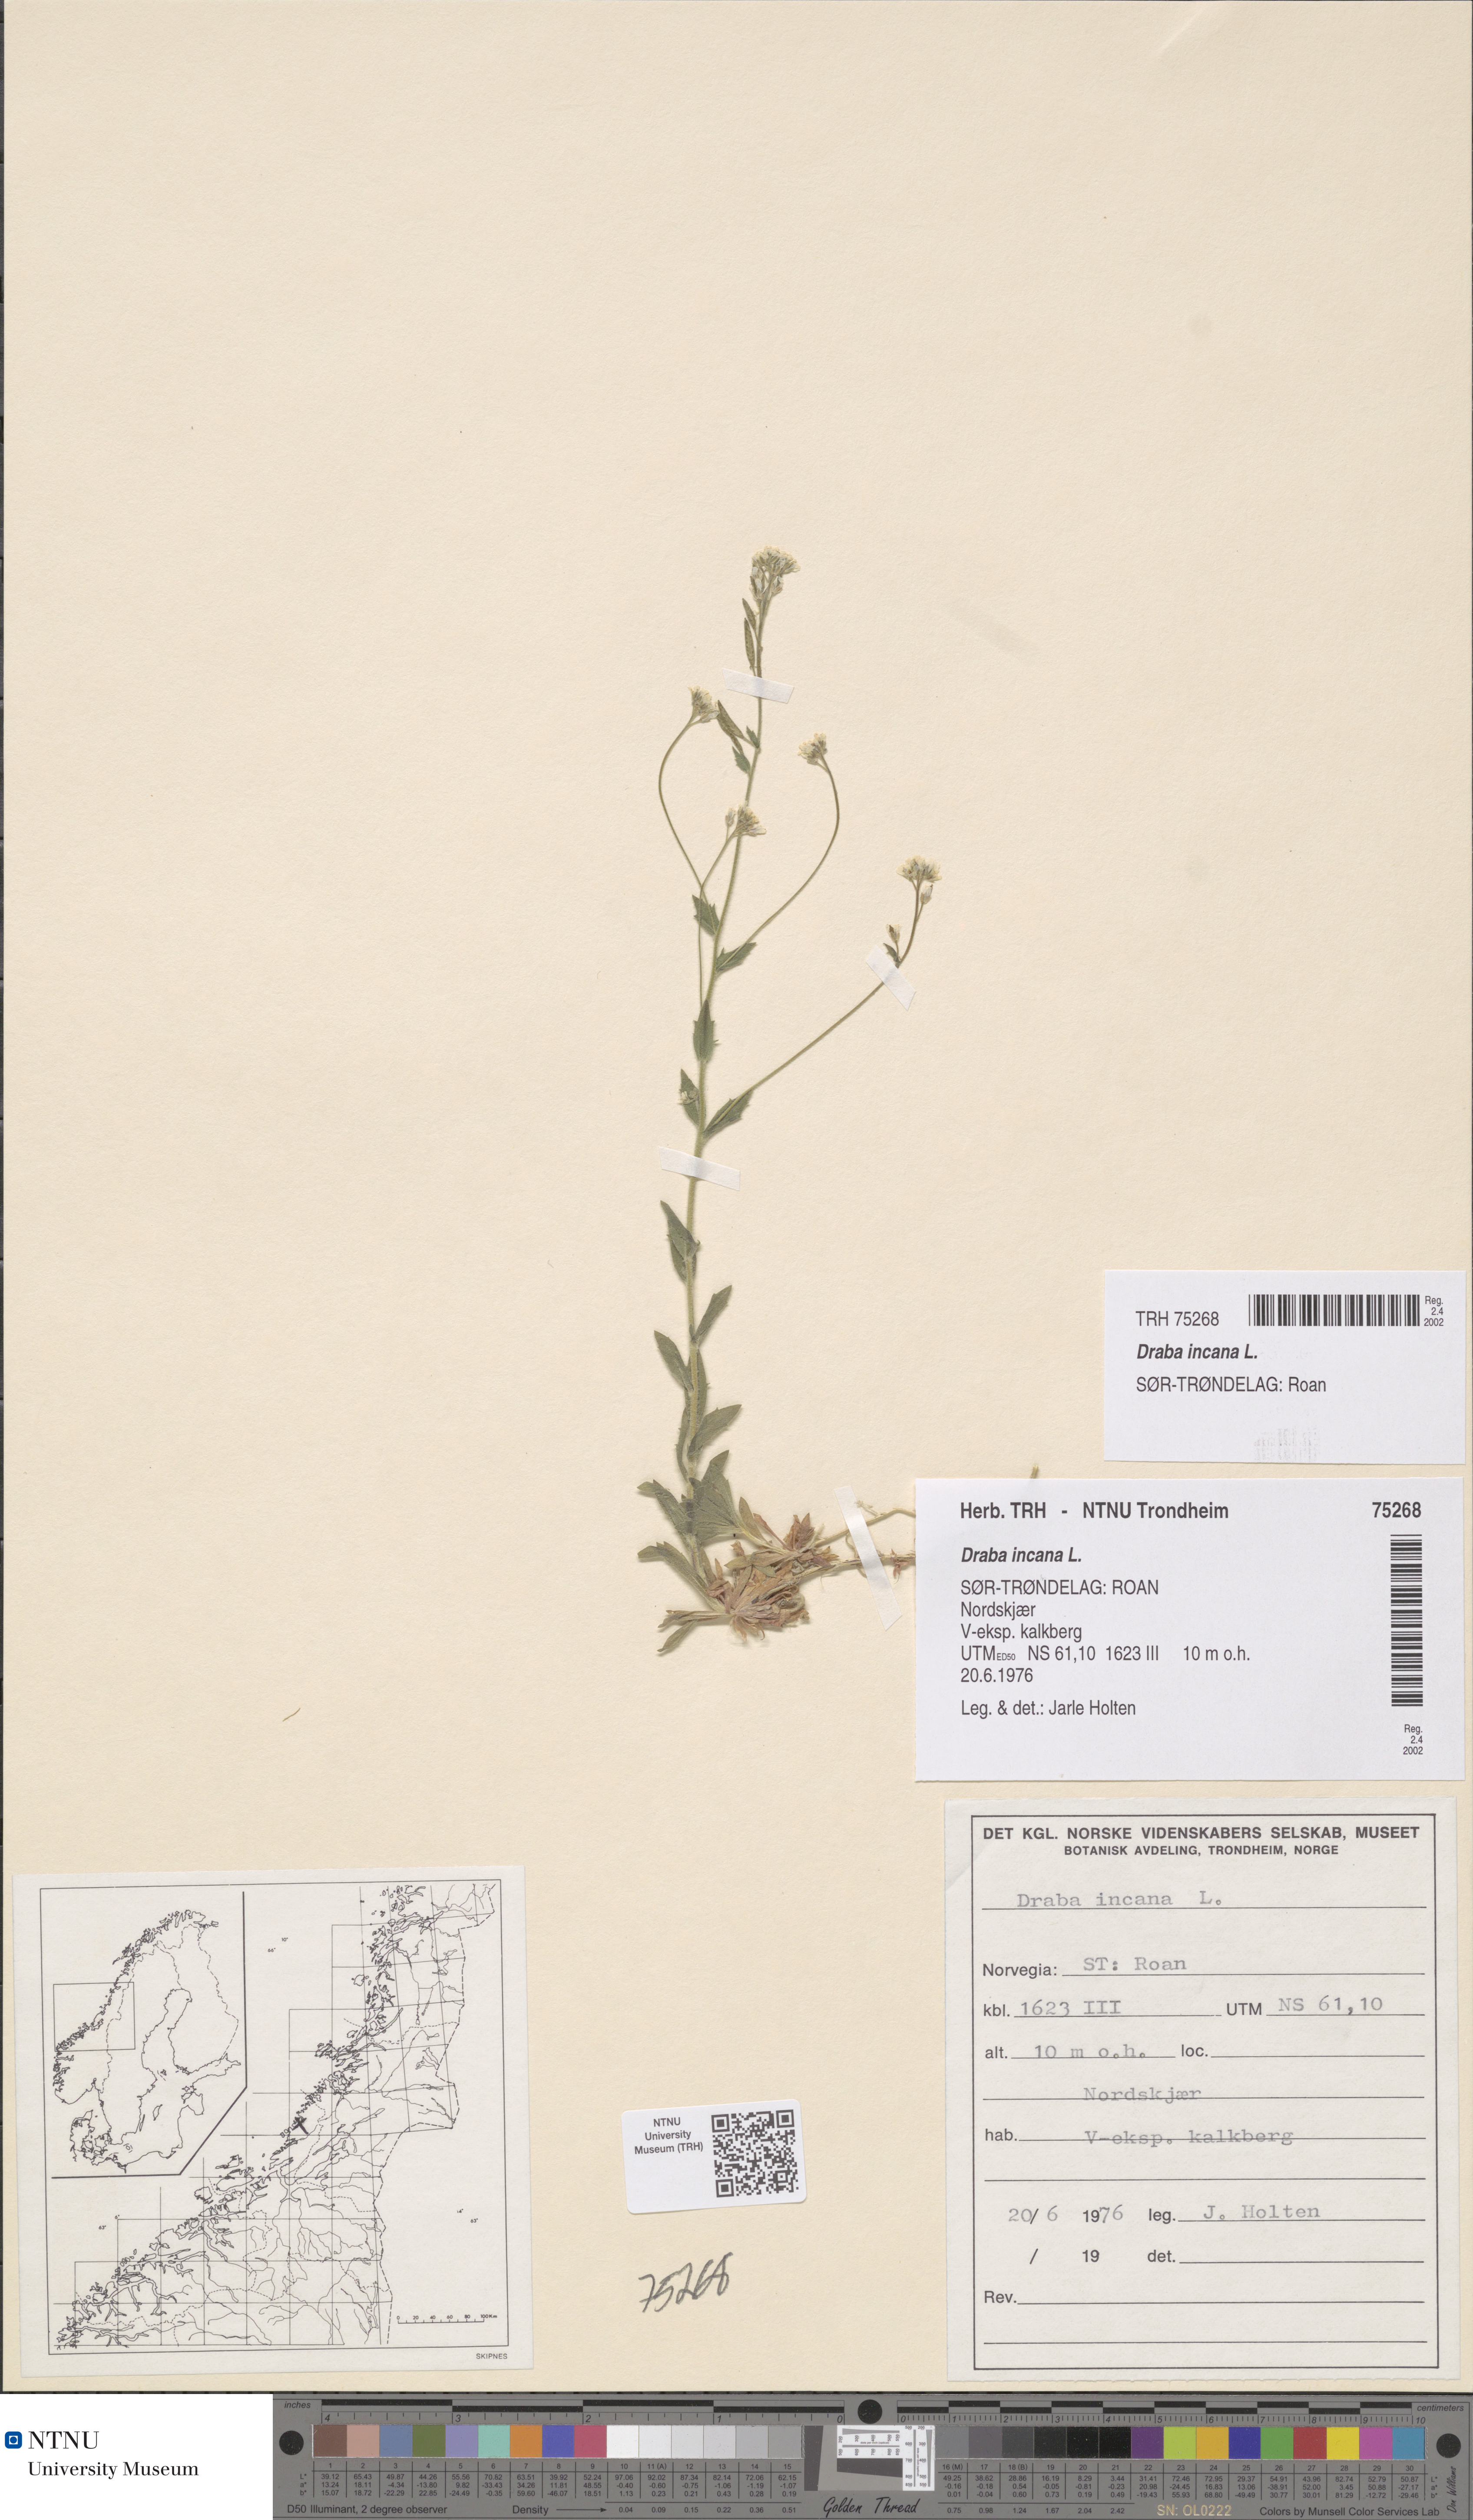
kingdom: Plantae
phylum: Tracheophyta
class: Magnoliopsida
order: Brassicales
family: Brassicaceae
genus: Draba
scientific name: Draba incana
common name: Hoary whitlow-grass
